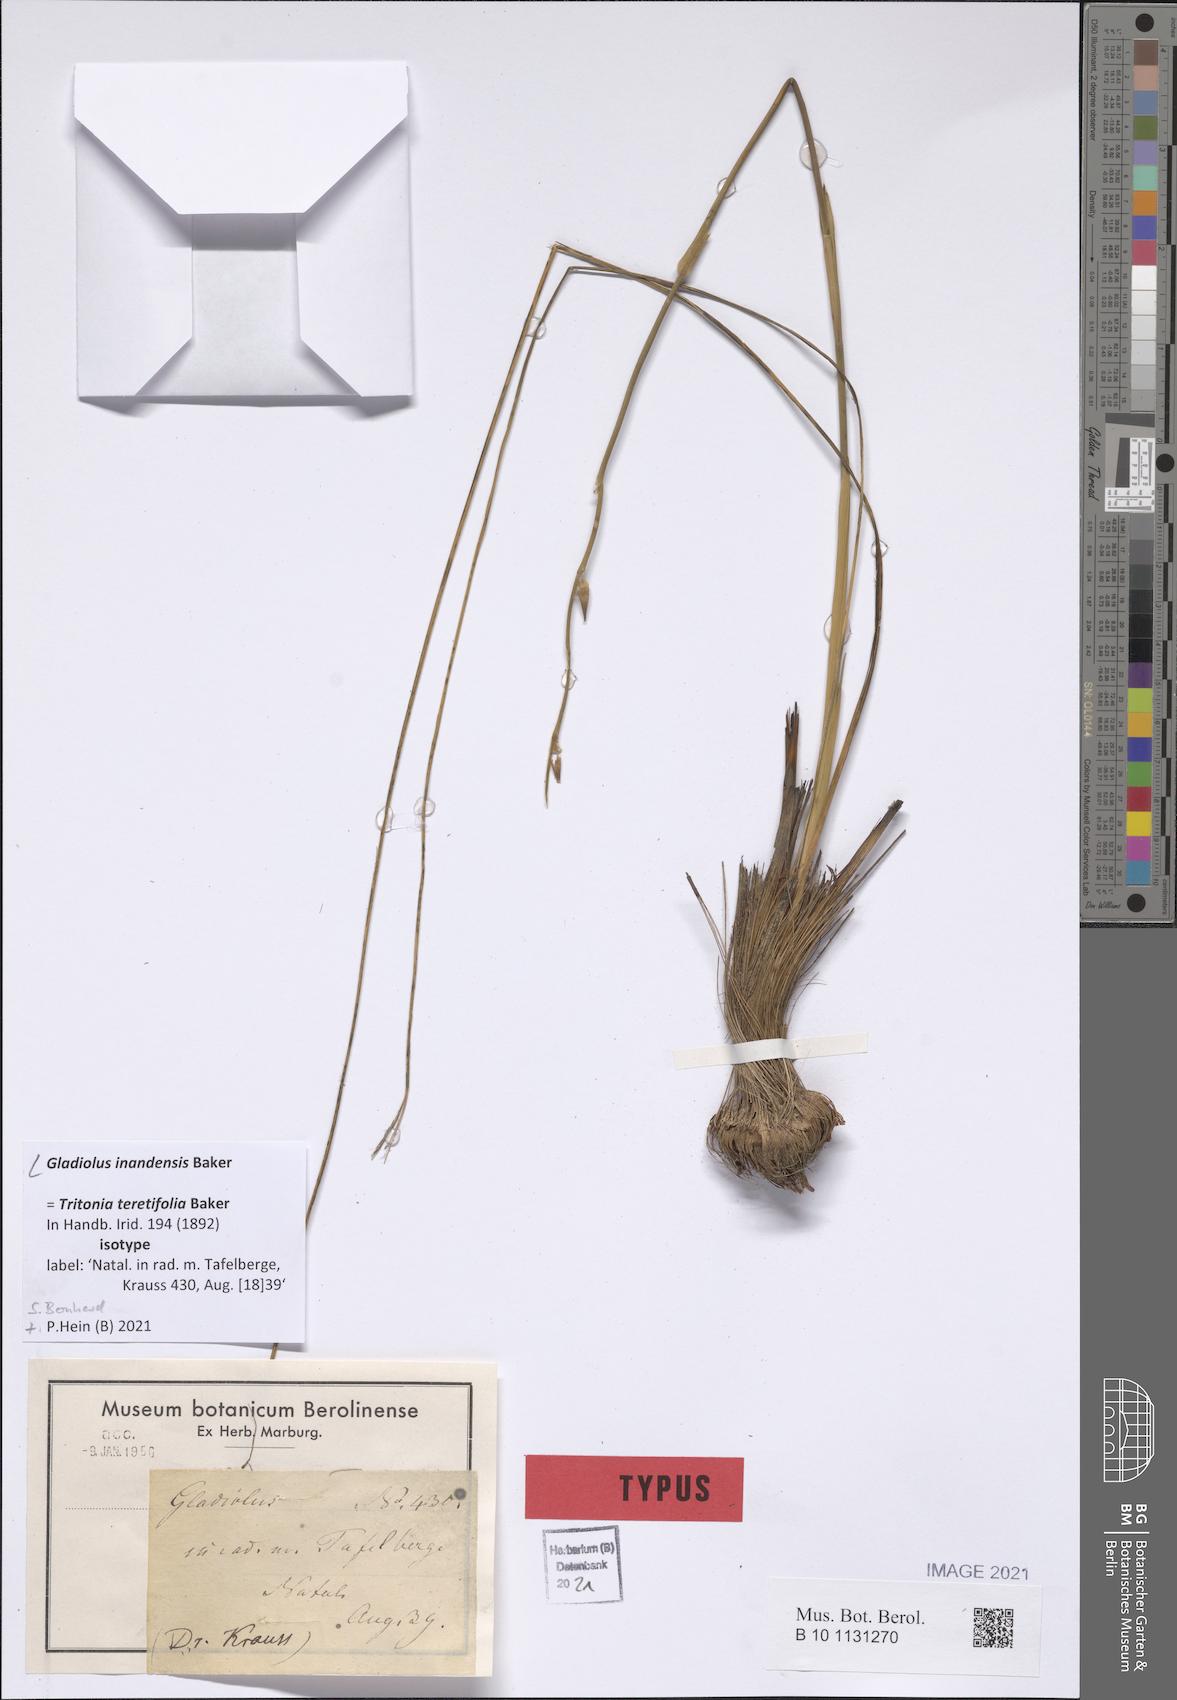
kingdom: Plantae
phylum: Tracheophyta
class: Liliopsida
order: Asparagales
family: Iridaceae
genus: Gladiolus
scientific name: Gladiolus inandensis
